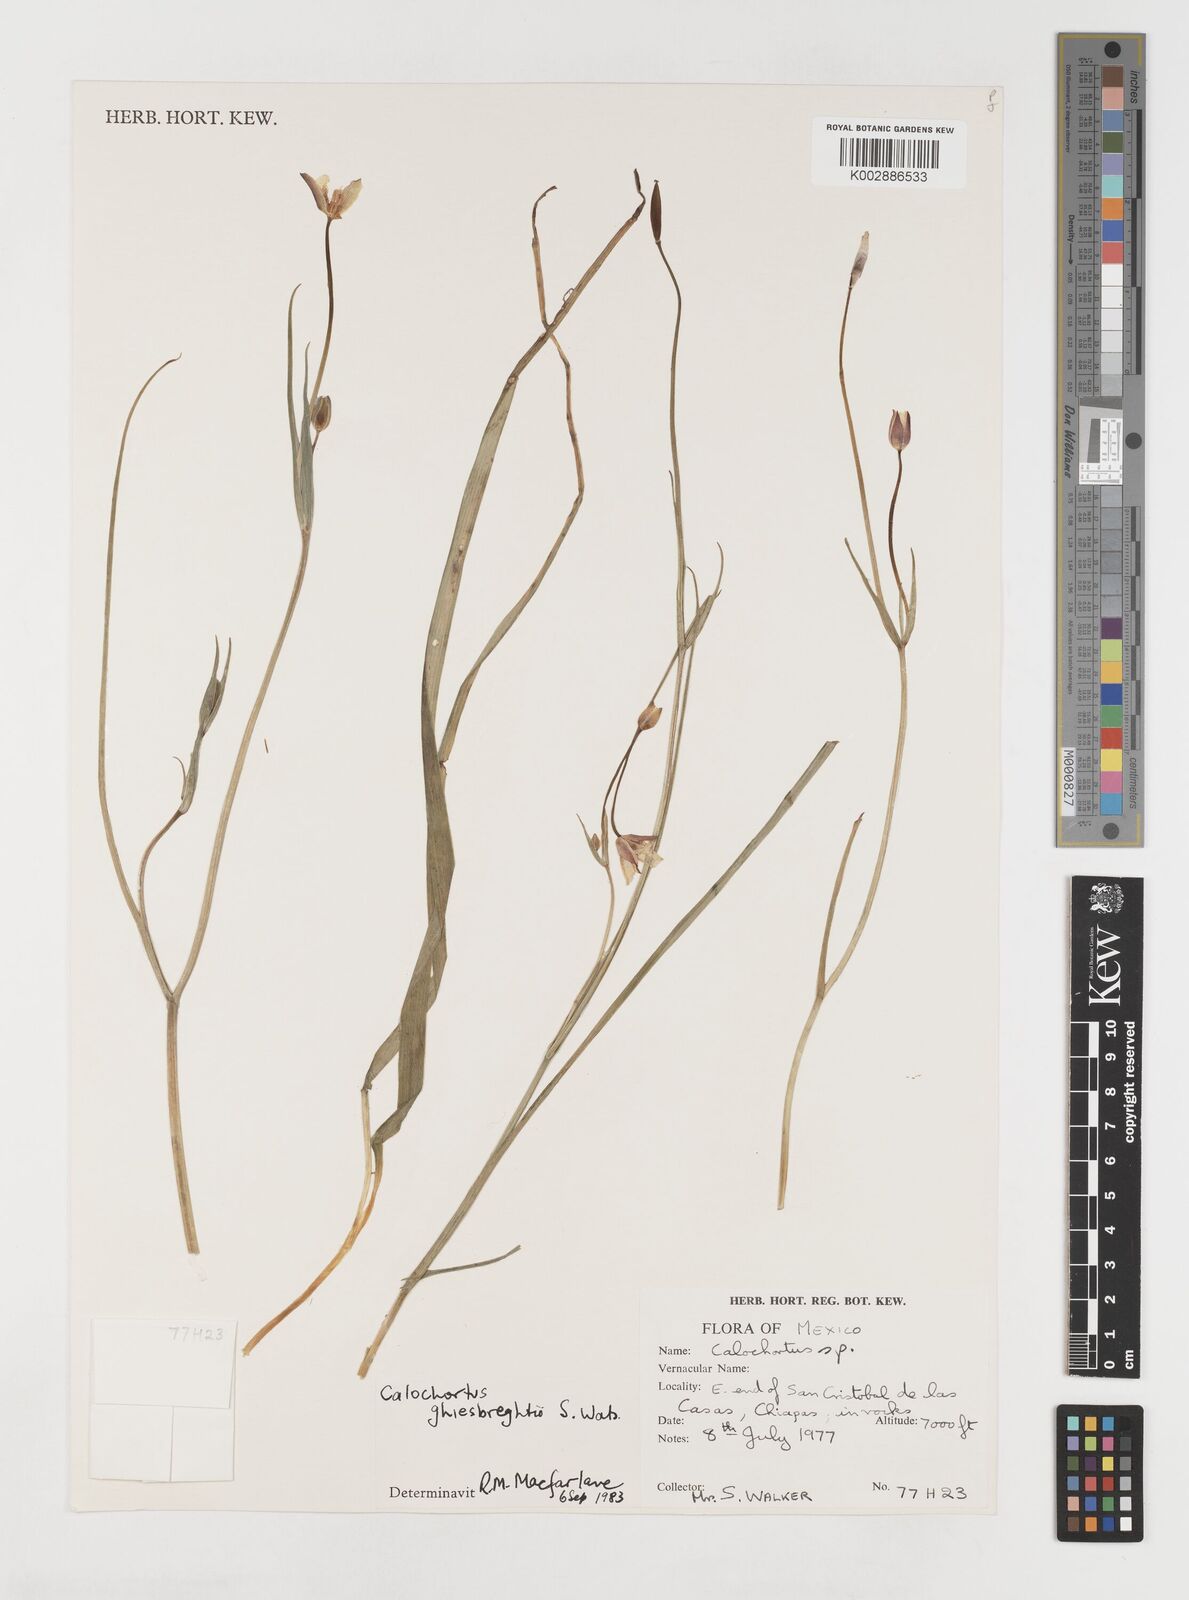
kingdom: Plantae
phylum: Tracheophyta
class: Liliopsida
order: Liliales
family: Liliaceae
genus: Calochortus
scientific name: Calochortus ghiesbreghtii
